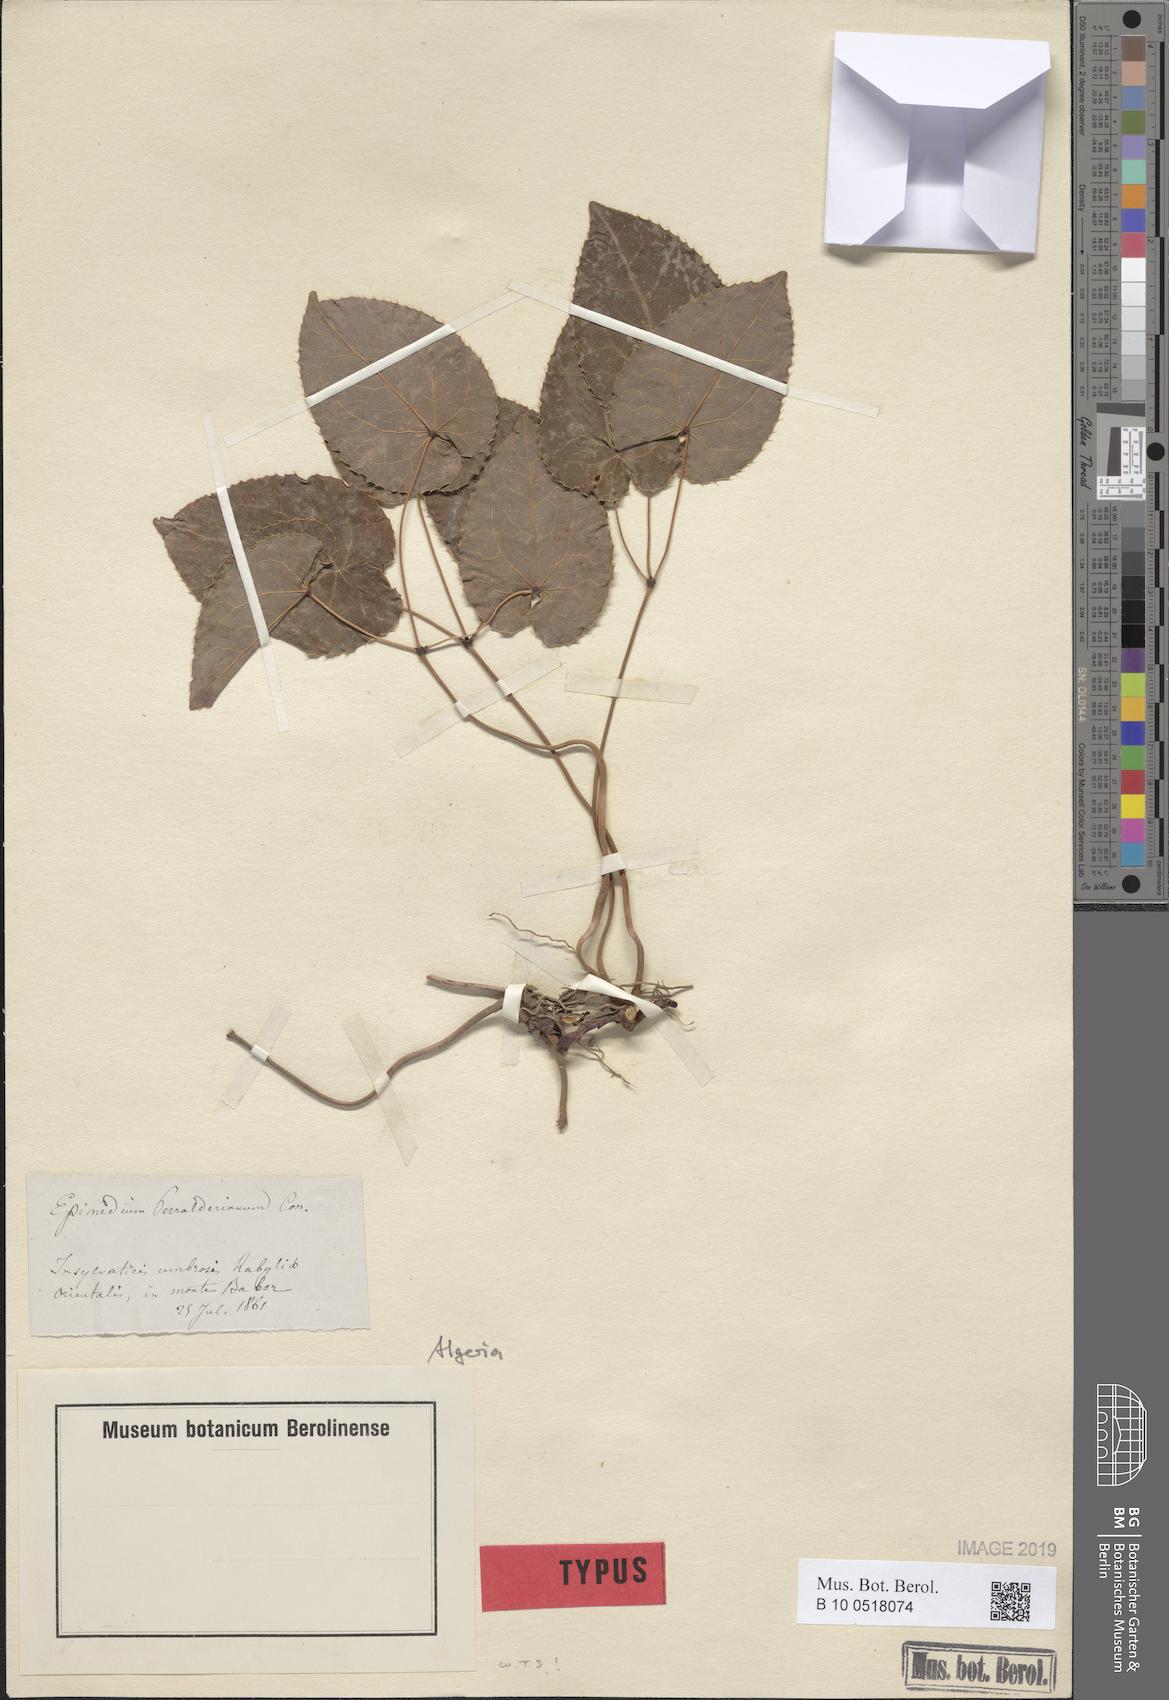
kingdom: Plantae
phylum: Tracheophyta
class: Magnoliopsida
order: Ranunculales
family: Berberidaceae
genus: Epimedium
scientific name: Epimedium perralderianum
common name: Algerian barrenwort
